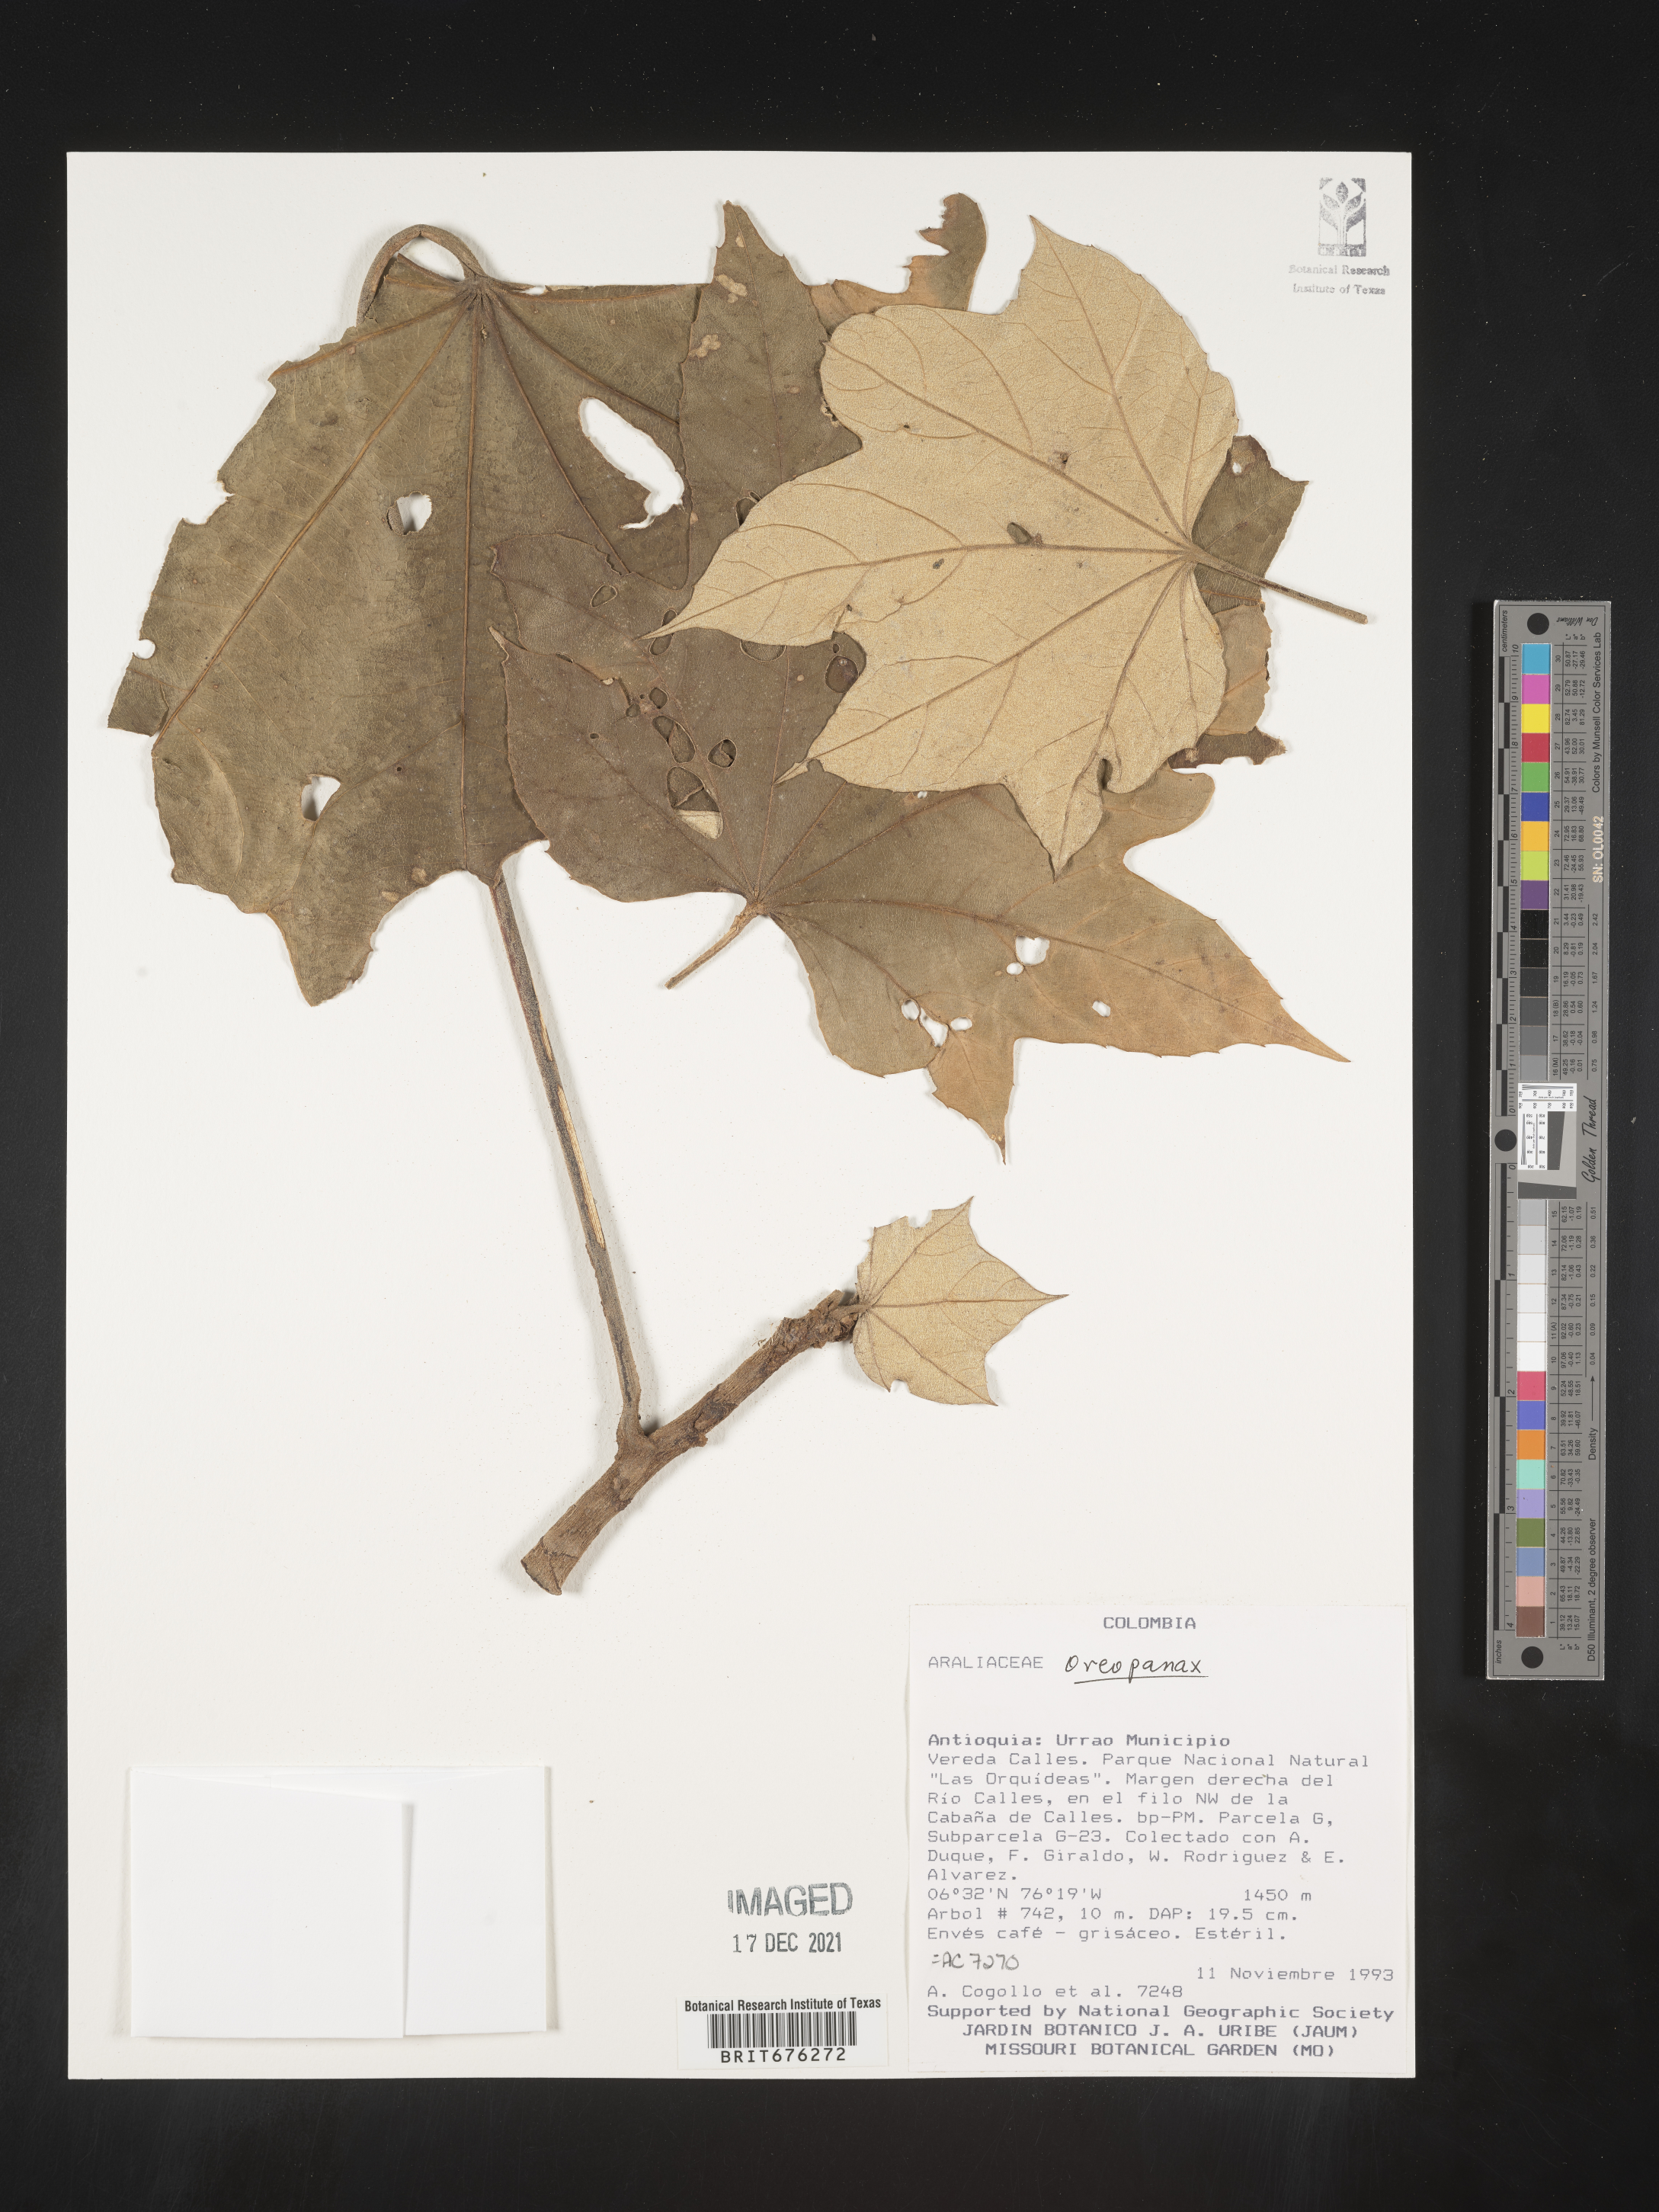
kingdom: Plantae
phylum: Tracheophyta
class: Magnoliopsida
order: Apiales
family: Araliaceae
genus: Oreopanax
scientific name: Oreopanax
